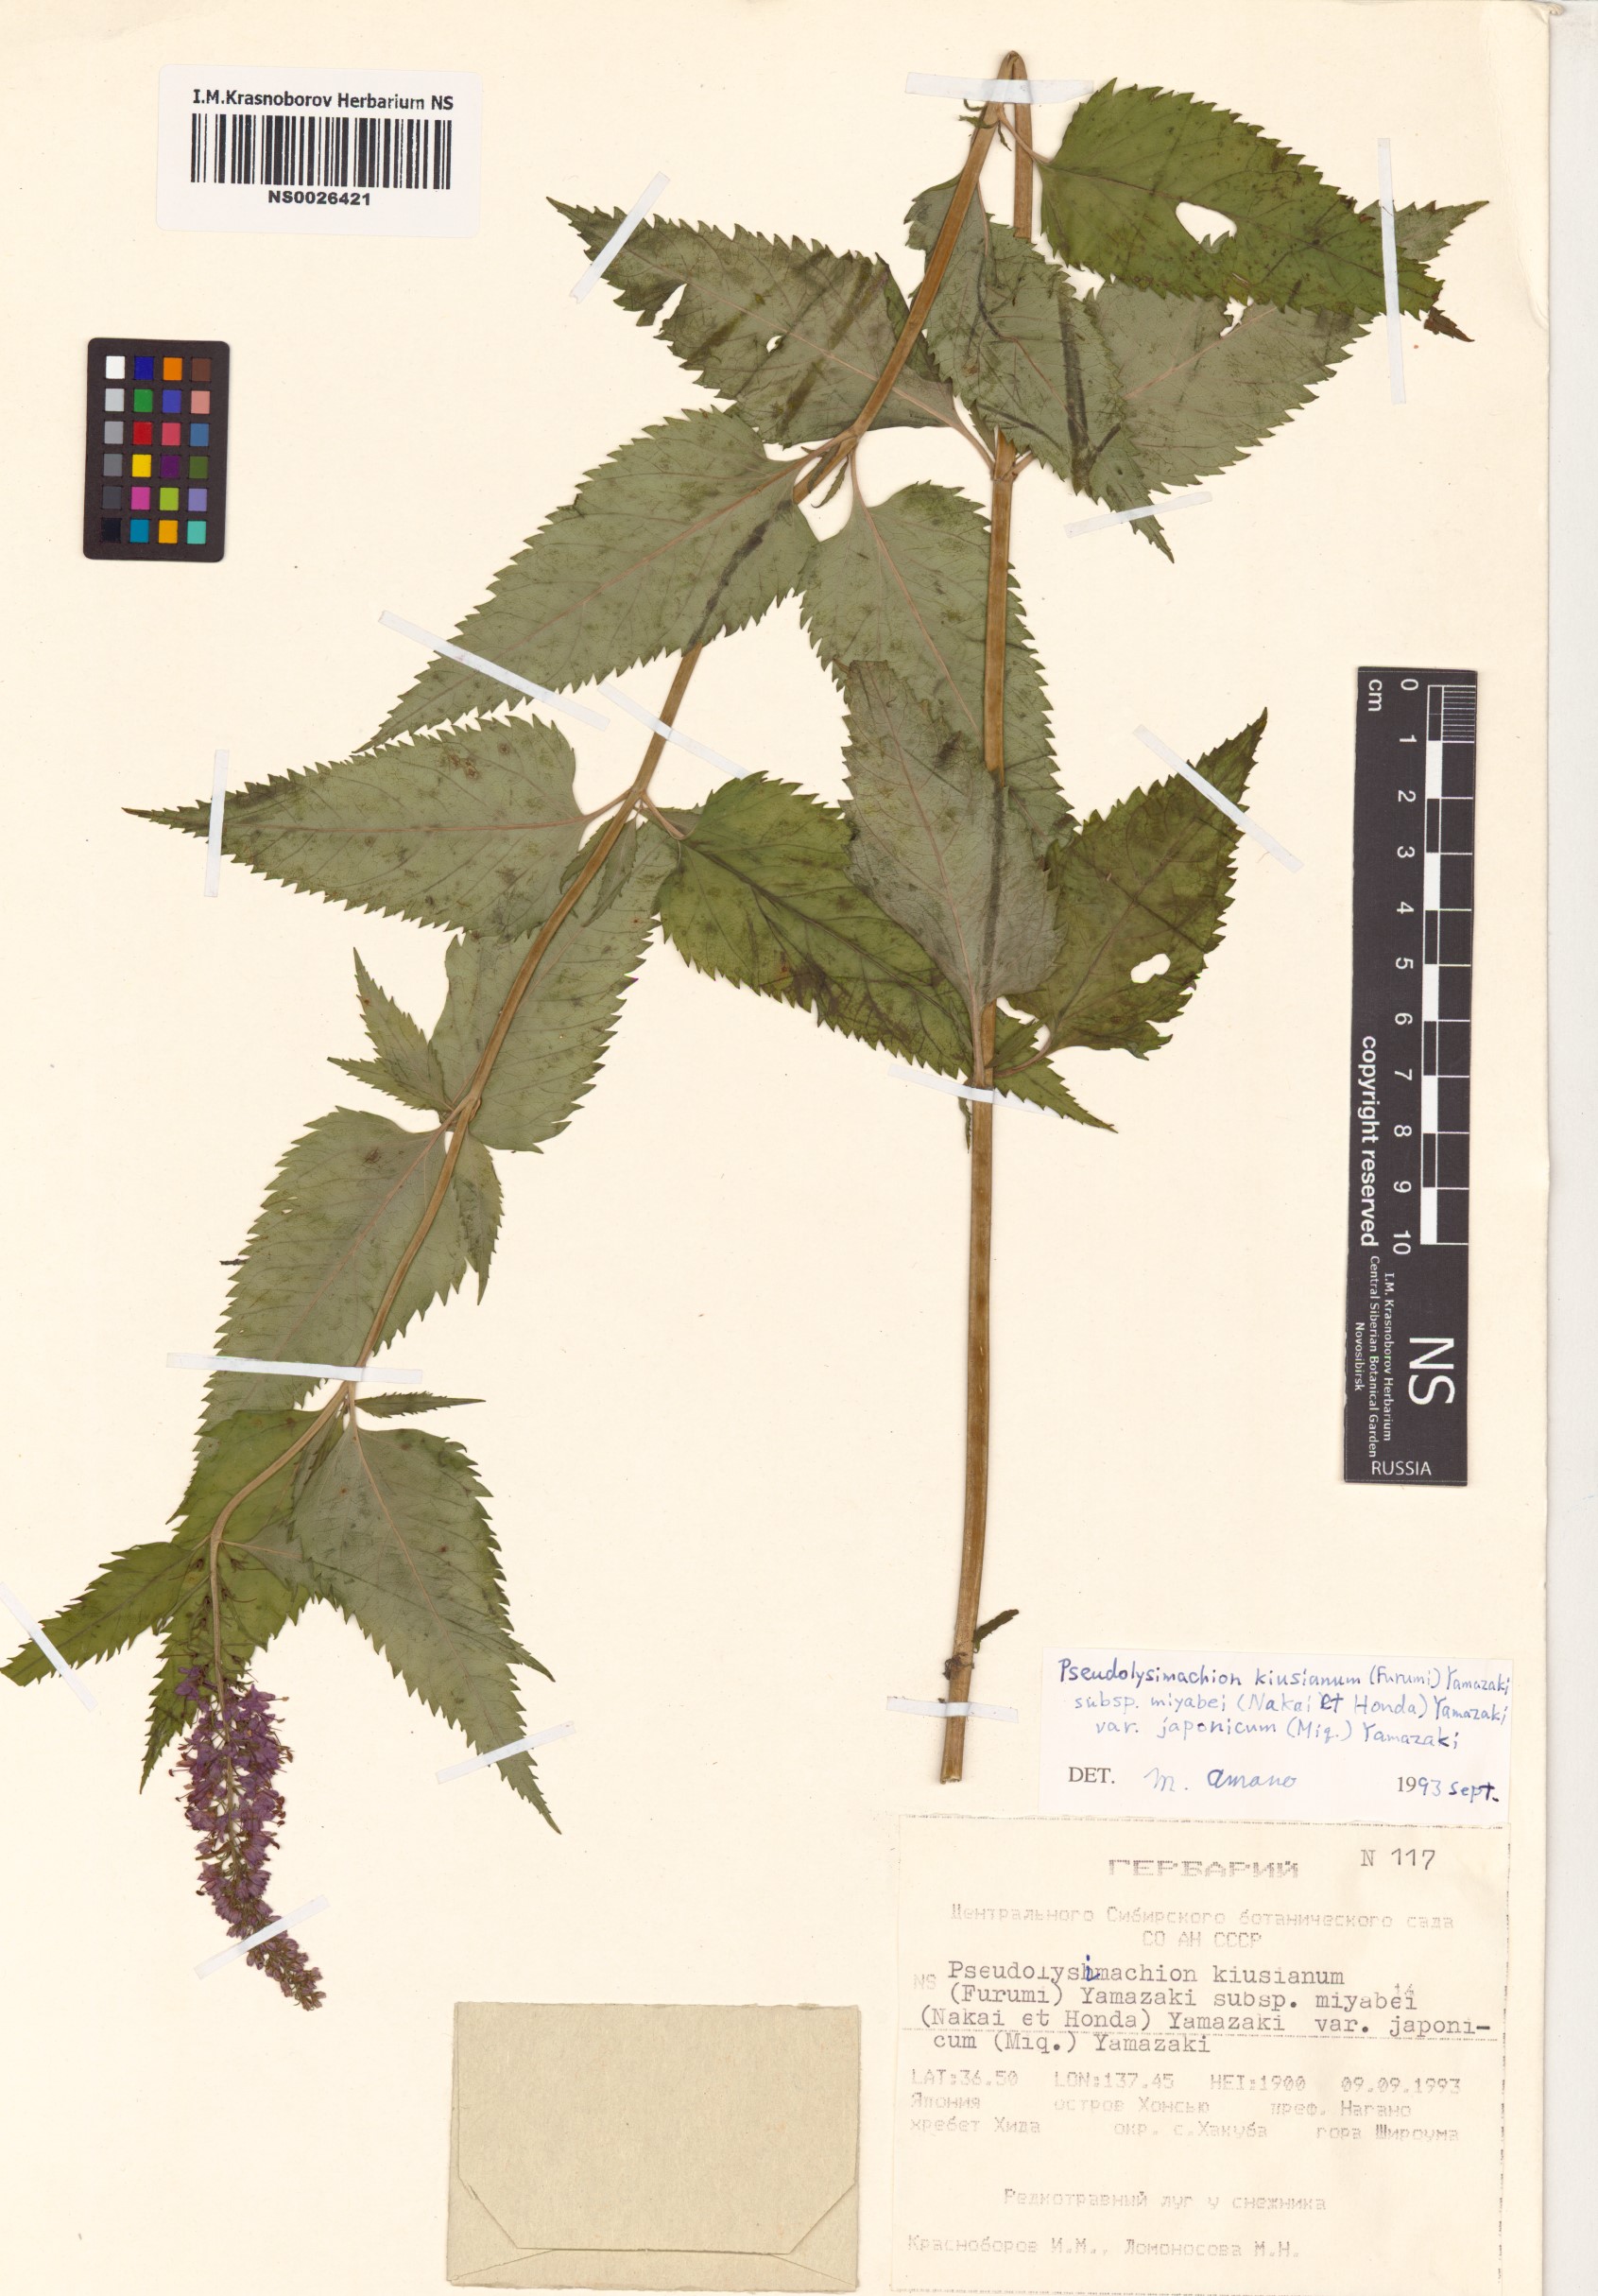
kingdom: Plantae
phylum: Tracheophyta
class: Magnoliopsida
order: Lamiales
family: Plantaginaceae
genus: Veronica
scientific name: Veronica ovata
